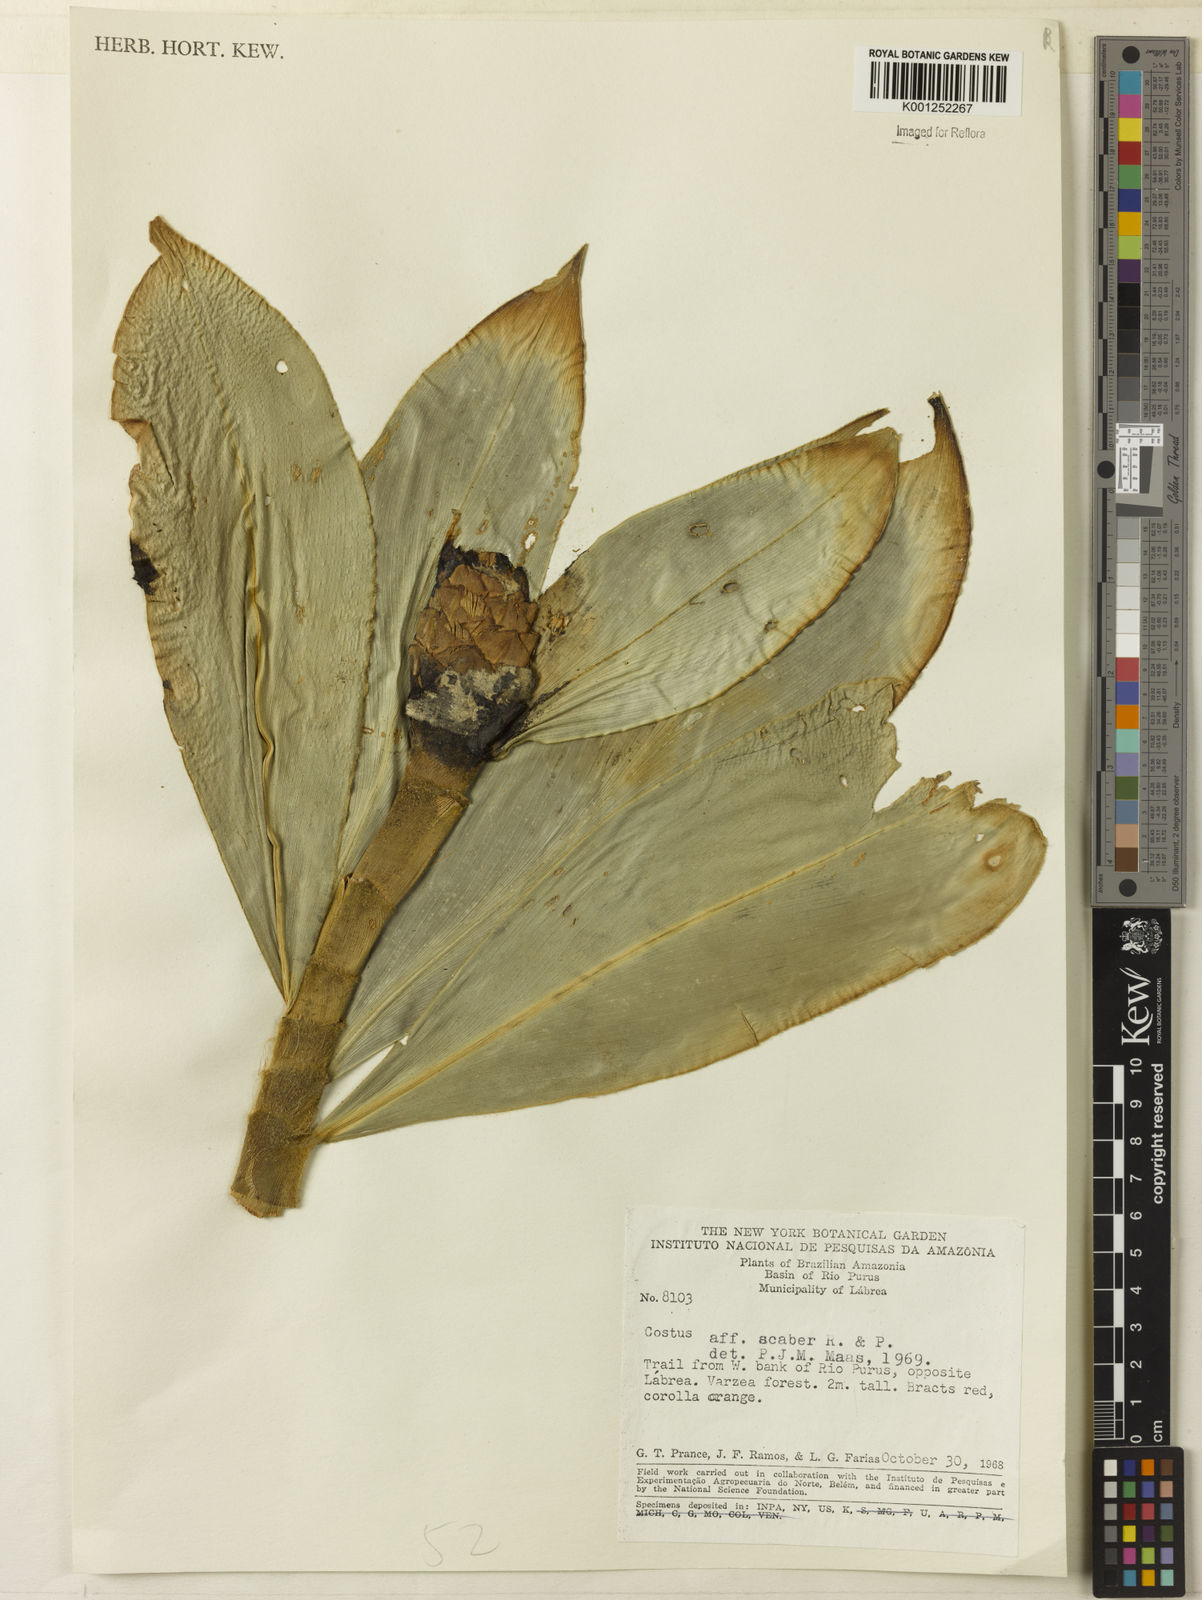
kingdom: Plantae
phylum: Tracheophyta
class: Liliopsida
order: Zingiberales
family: Costaceae
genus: Costus
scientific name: Costus scaber
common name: Spiral head ginger
